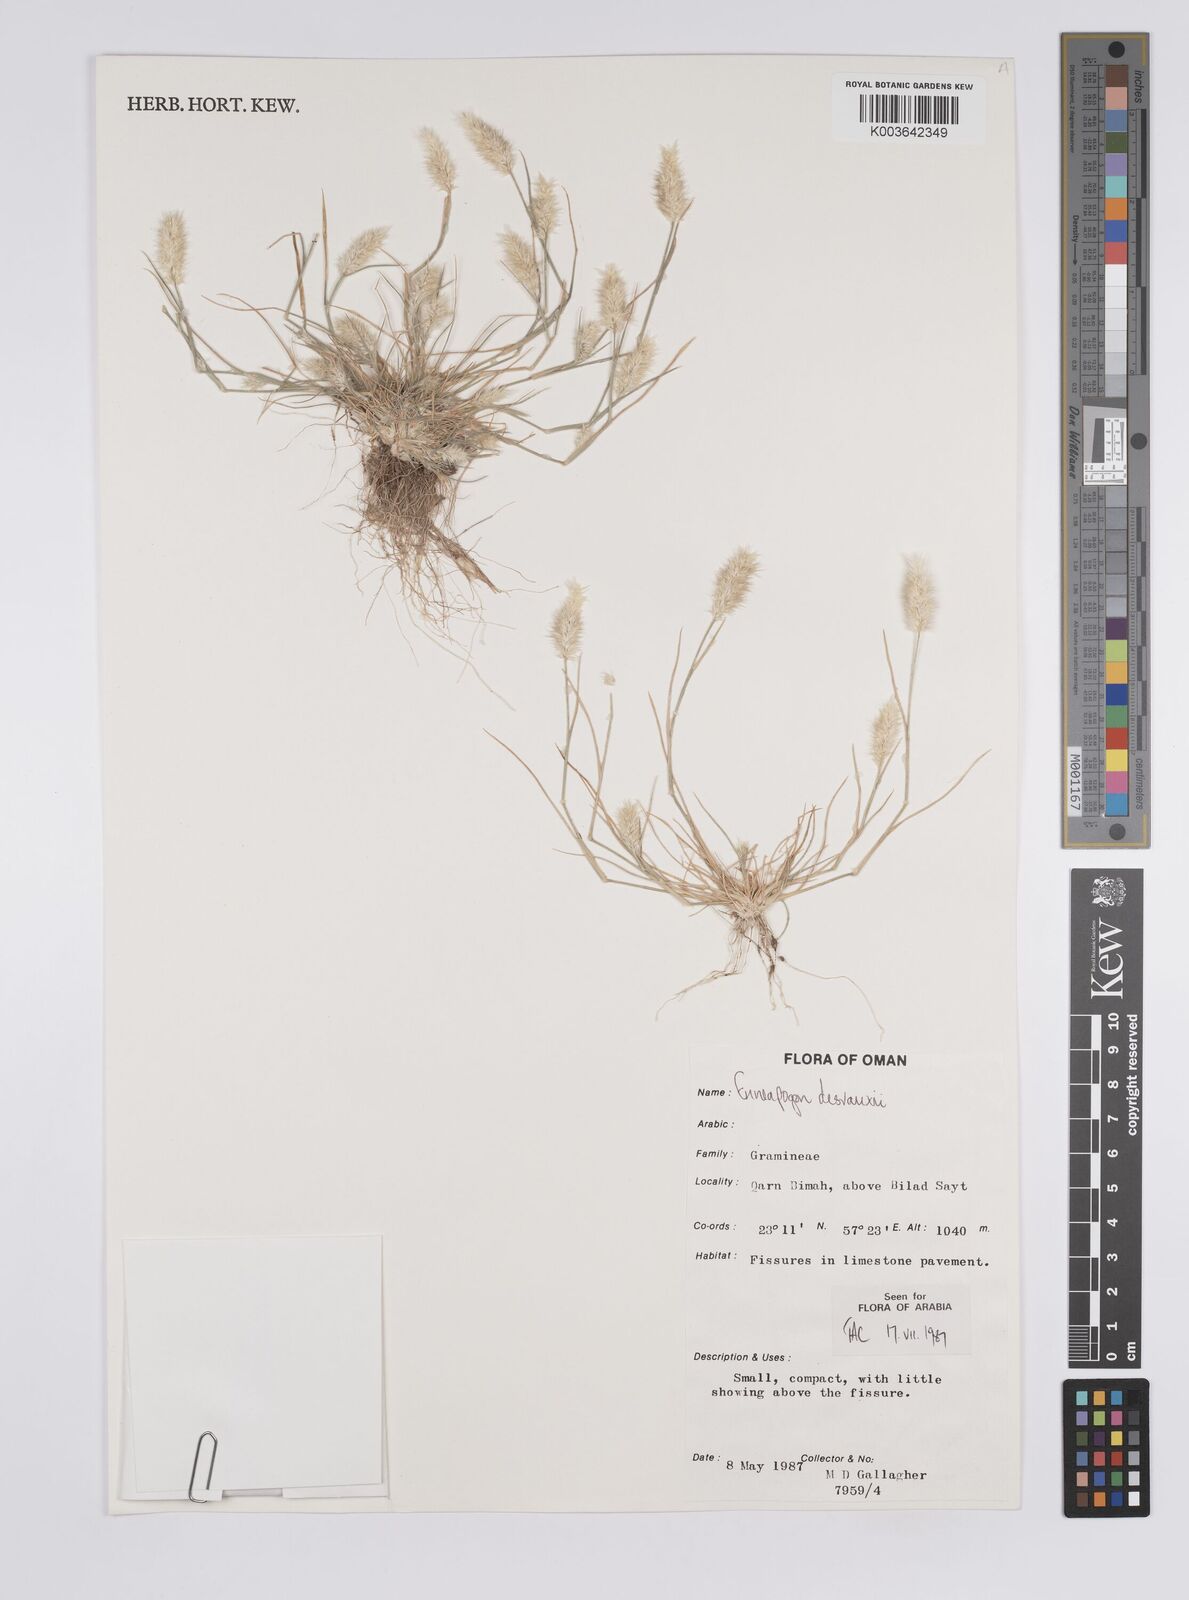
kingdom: Plantae
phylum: Tracheophyta
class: Liliopsida
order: Poales
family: Poaceae
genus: Enneapogon
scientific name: Enneapogon desvauxii
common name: Feather pappus grass
